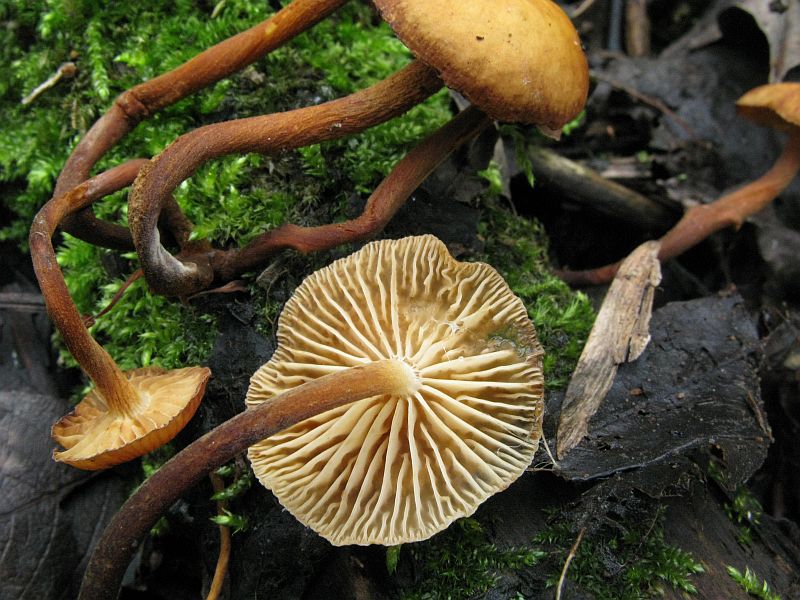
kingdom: Fungi
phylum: Basidiomycota
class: Agaricomycetes
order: Agaricales
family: Physalacriaceae
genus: Flammulina
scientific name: Flammulina velutipes
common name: gul fløjlsfod
